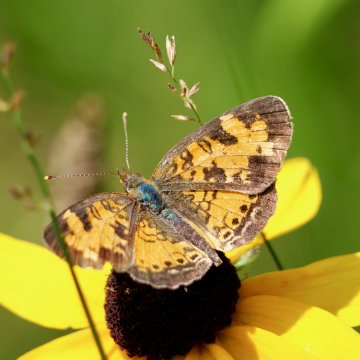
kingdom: Animalia
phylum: Arthropoda
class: Insecta
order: Lepidoptera
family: Nymphalidae
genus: Phyciodes
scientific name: Phyciodes tharos
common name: Northern Crescent
